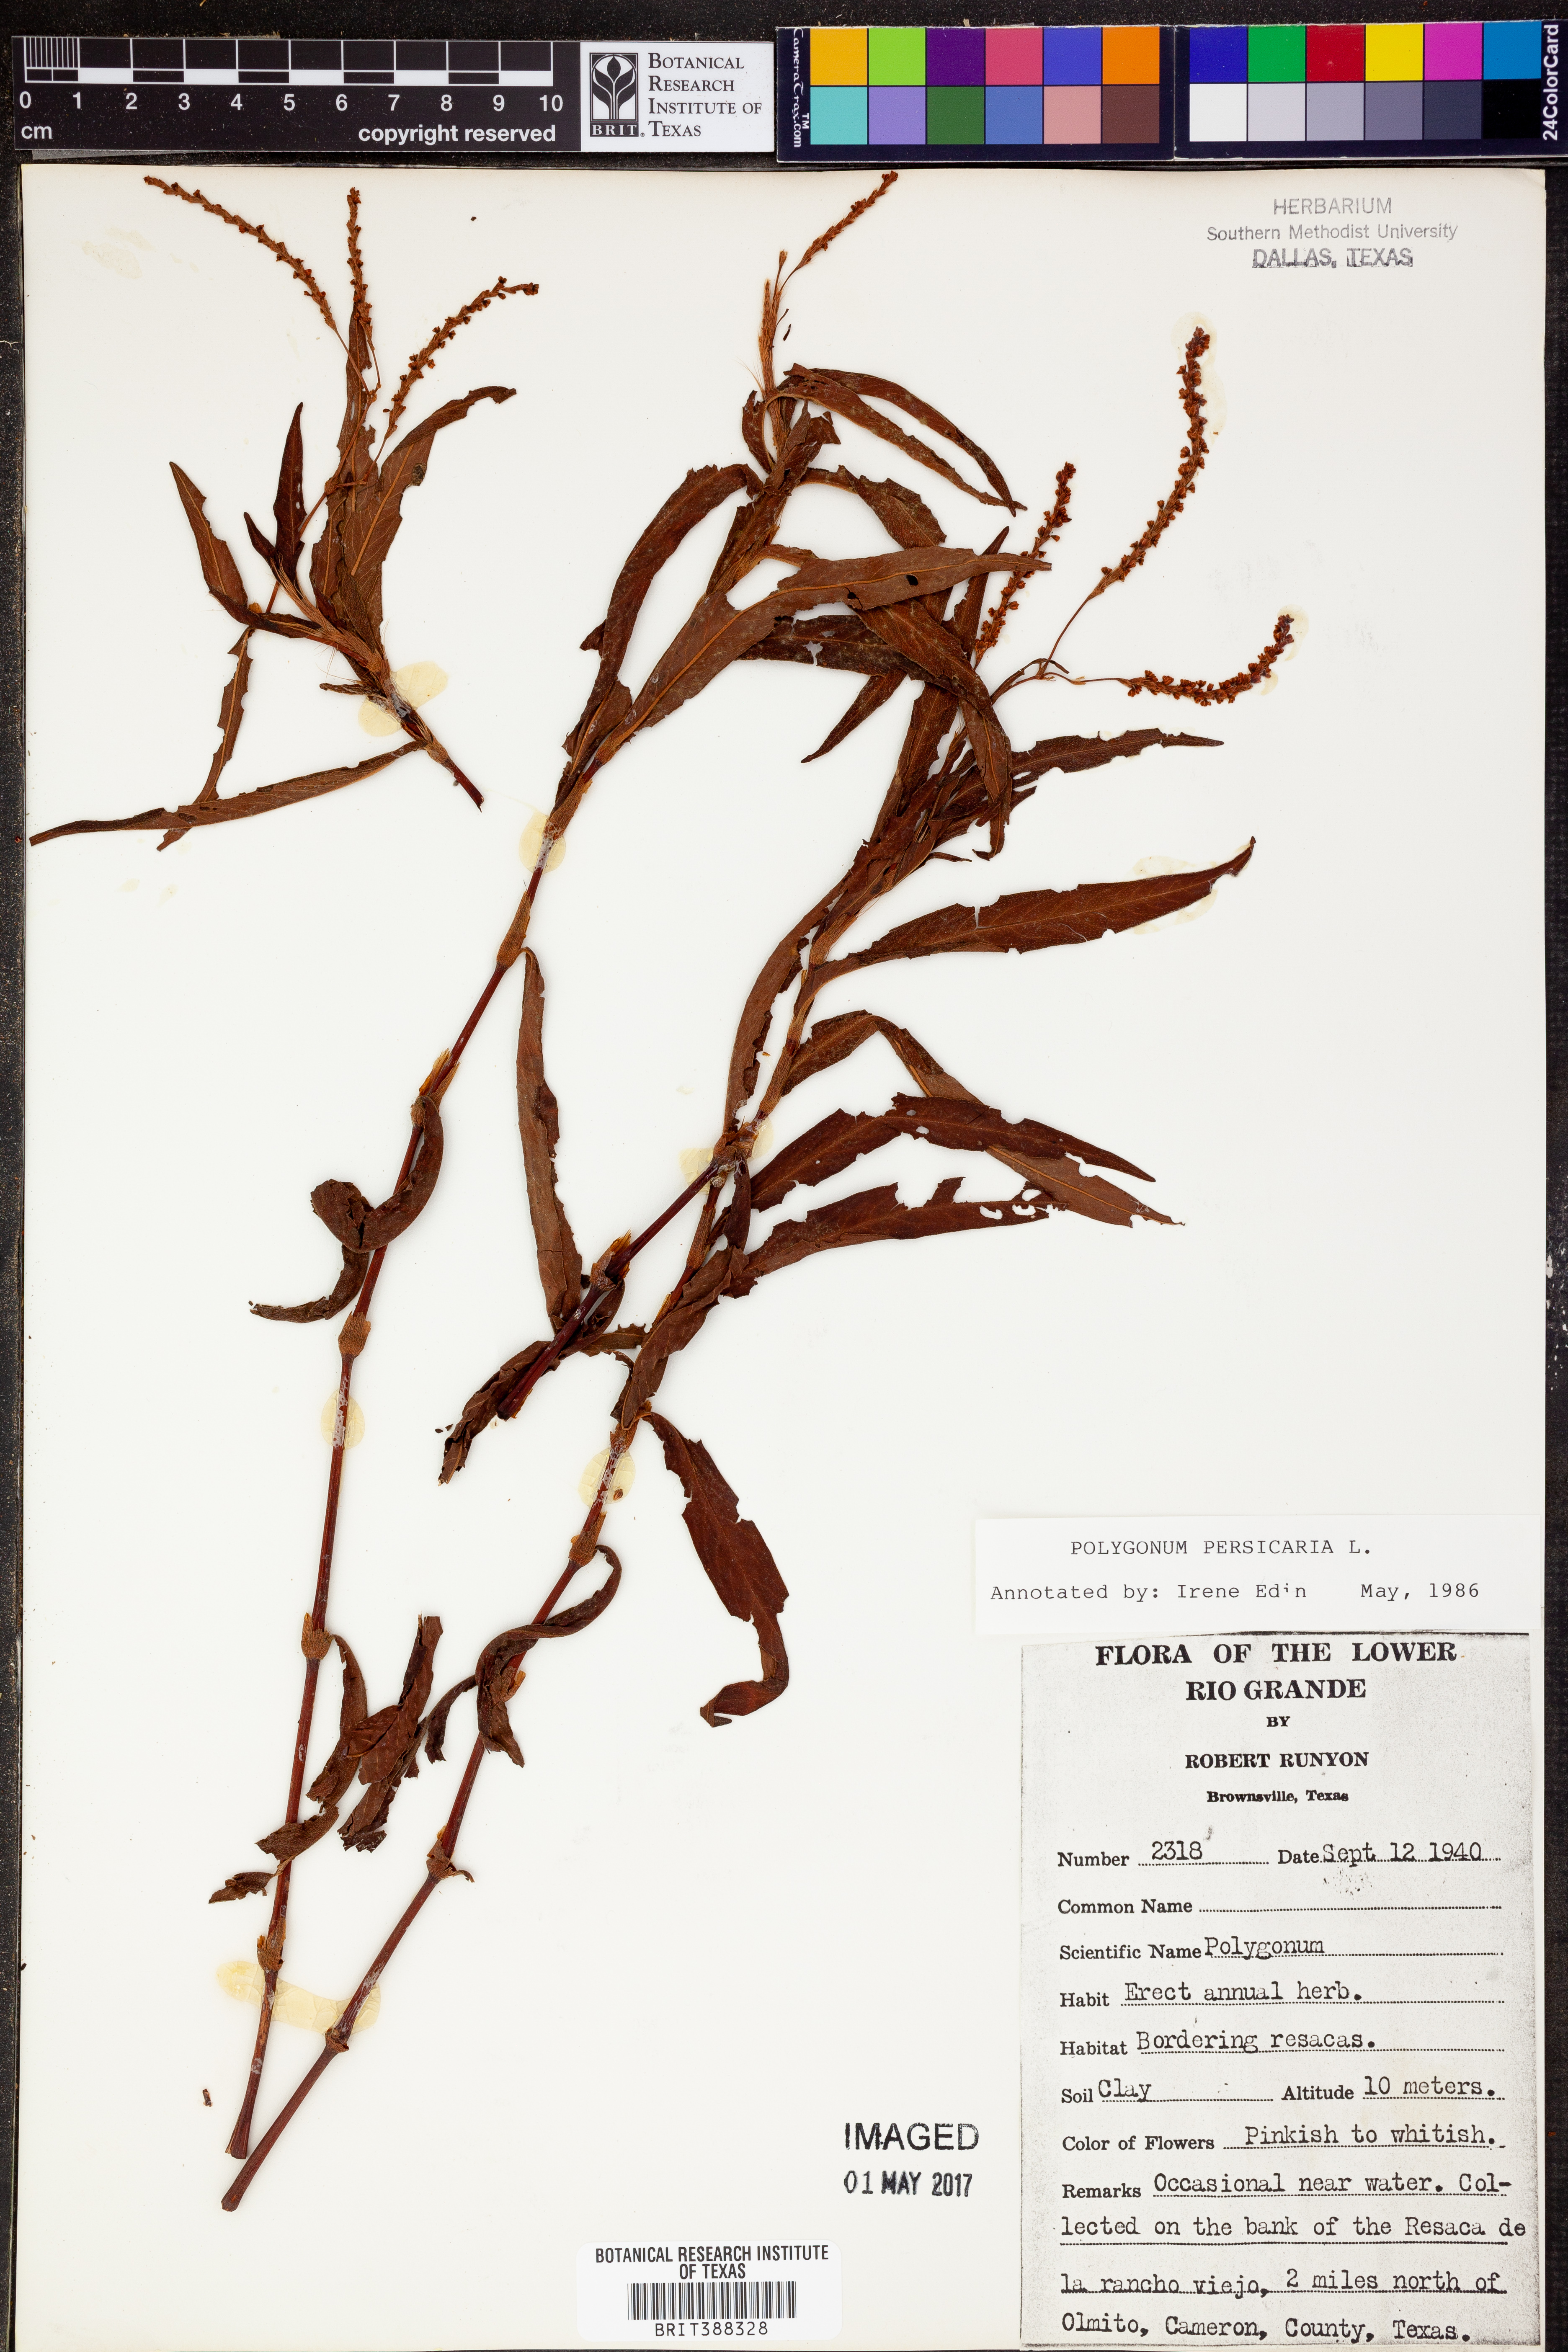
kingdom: Plantae
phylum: Tracheophyta
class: Magnoliopsida
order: Caryophyllales
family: Polygonaceae
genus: Persicaria
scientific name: Persicaria maculosa
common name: Redshank
